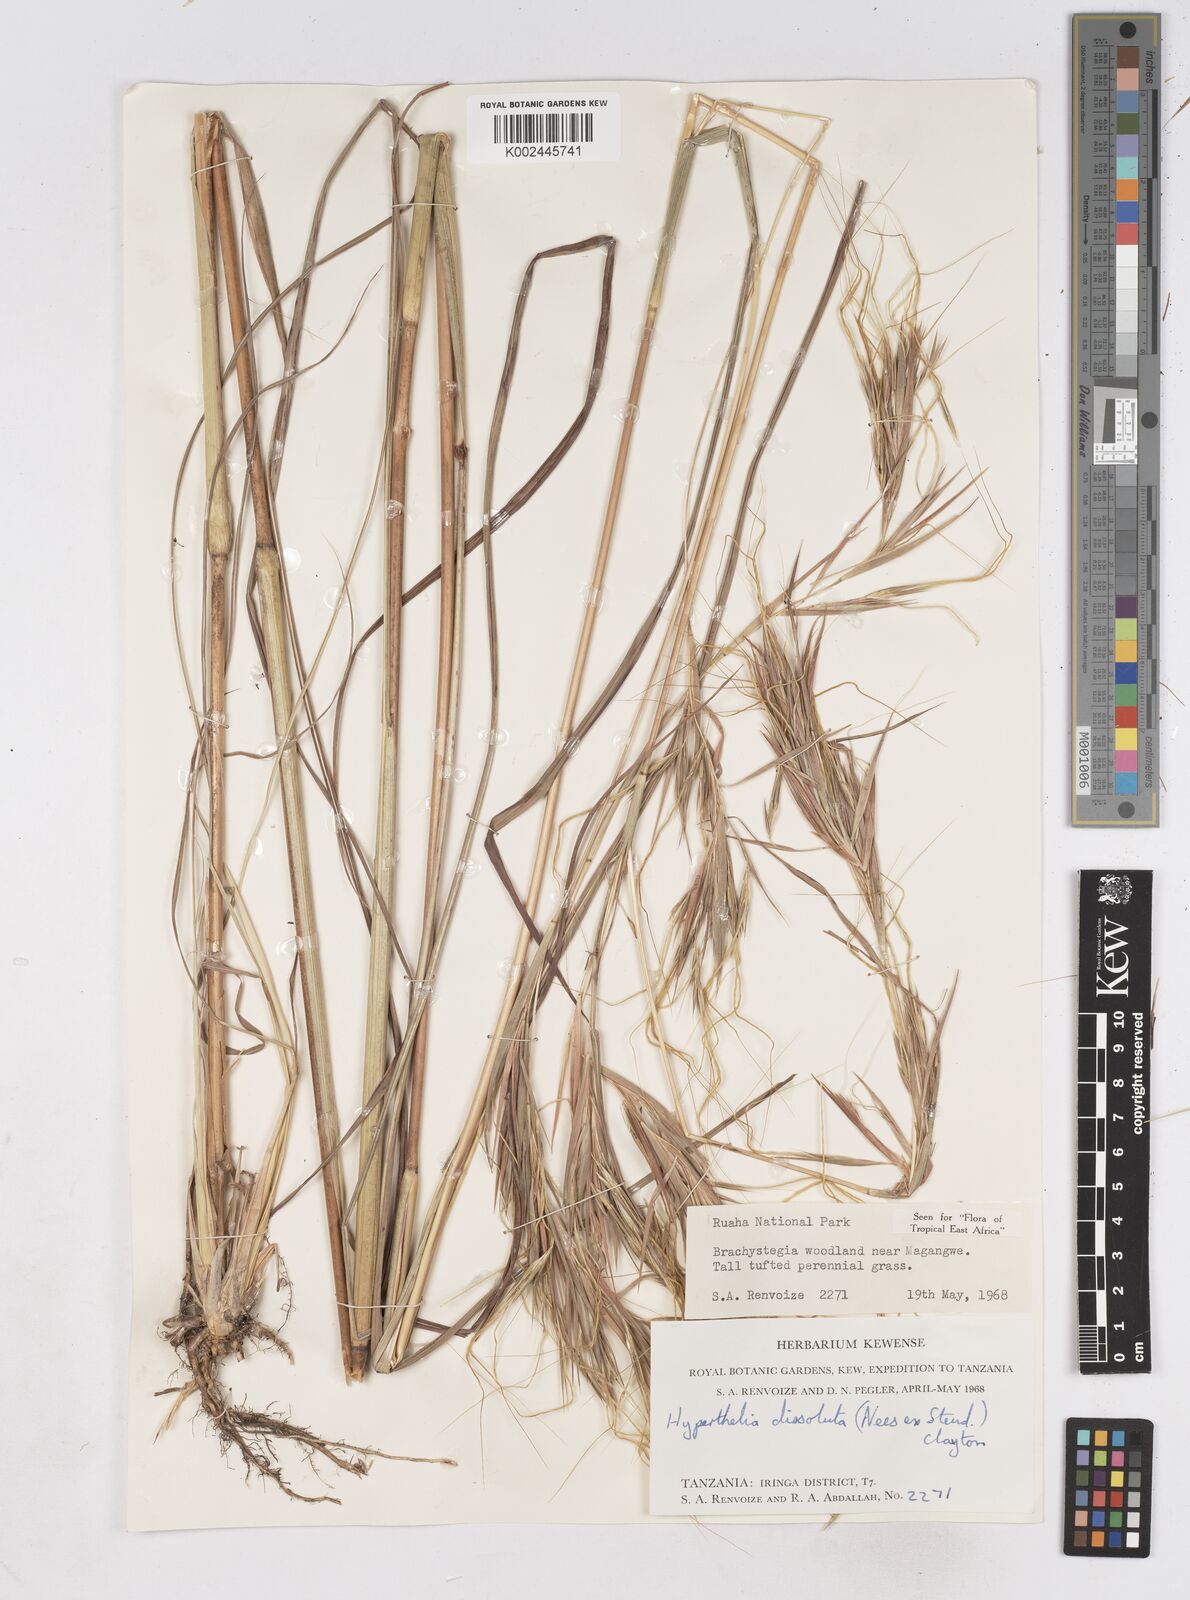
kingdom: Plantae
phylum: Tracheophyta
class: Liliopsida
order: Poales
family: Poaceae
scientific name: Poaceae
